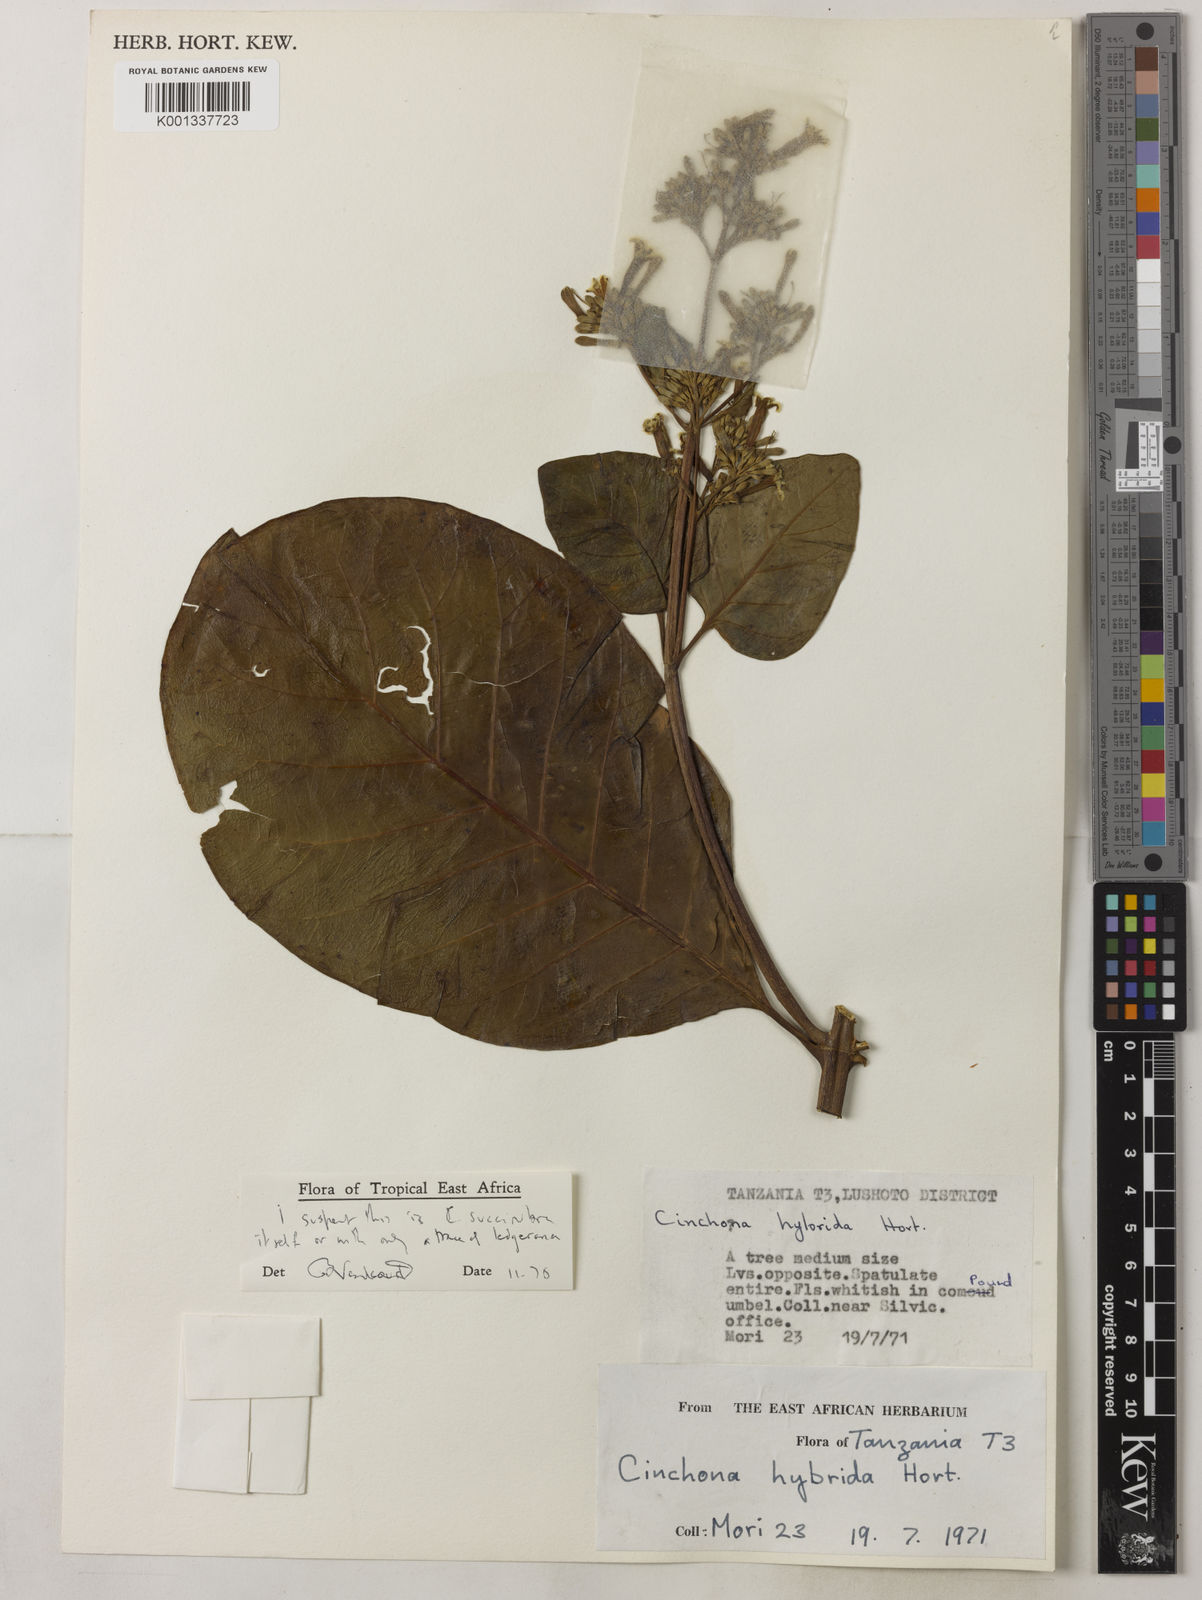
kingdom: Plantae
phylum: Tracheophyta
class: Magnoliopsida
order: Gentianales
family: Rubiaceae
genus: Cinchona
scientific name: Cinchona
